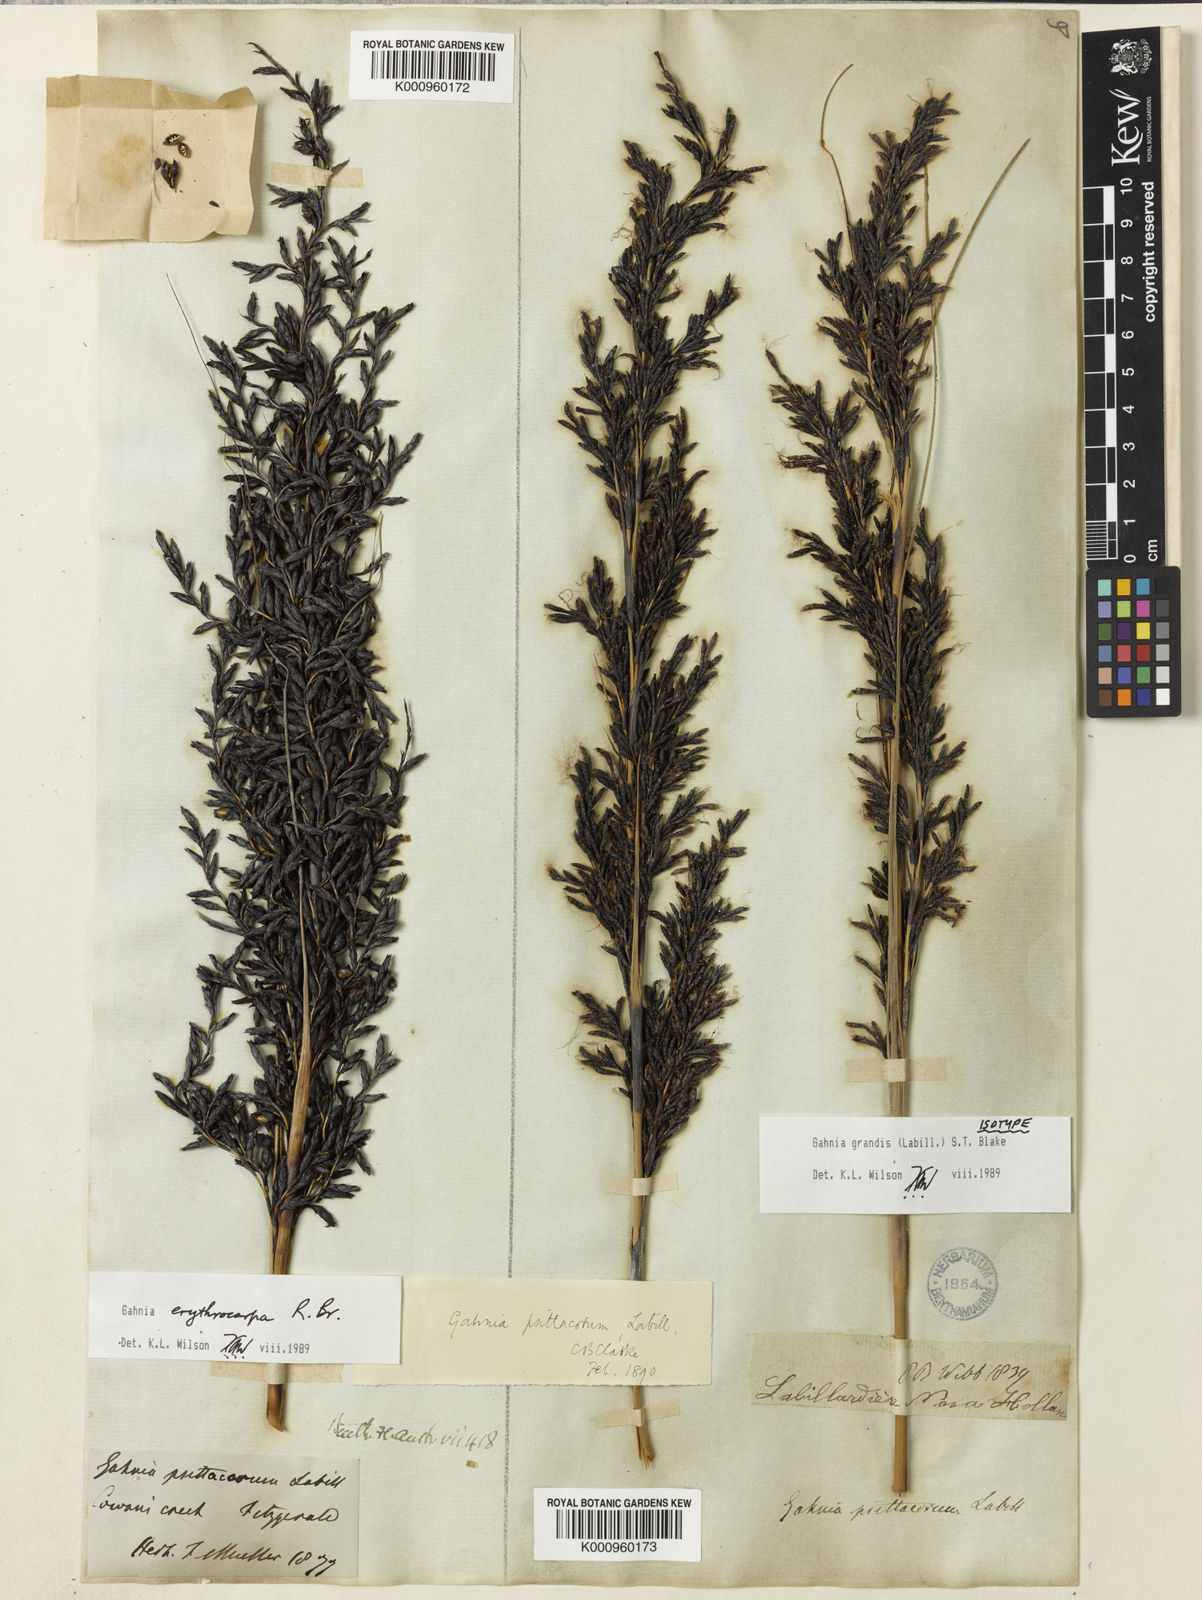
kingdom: Plantae
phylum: Tracheophyta
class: Liliopsida
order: Poales
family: Cyperaceae
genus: Gahnia
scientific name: Gahnia grandis
